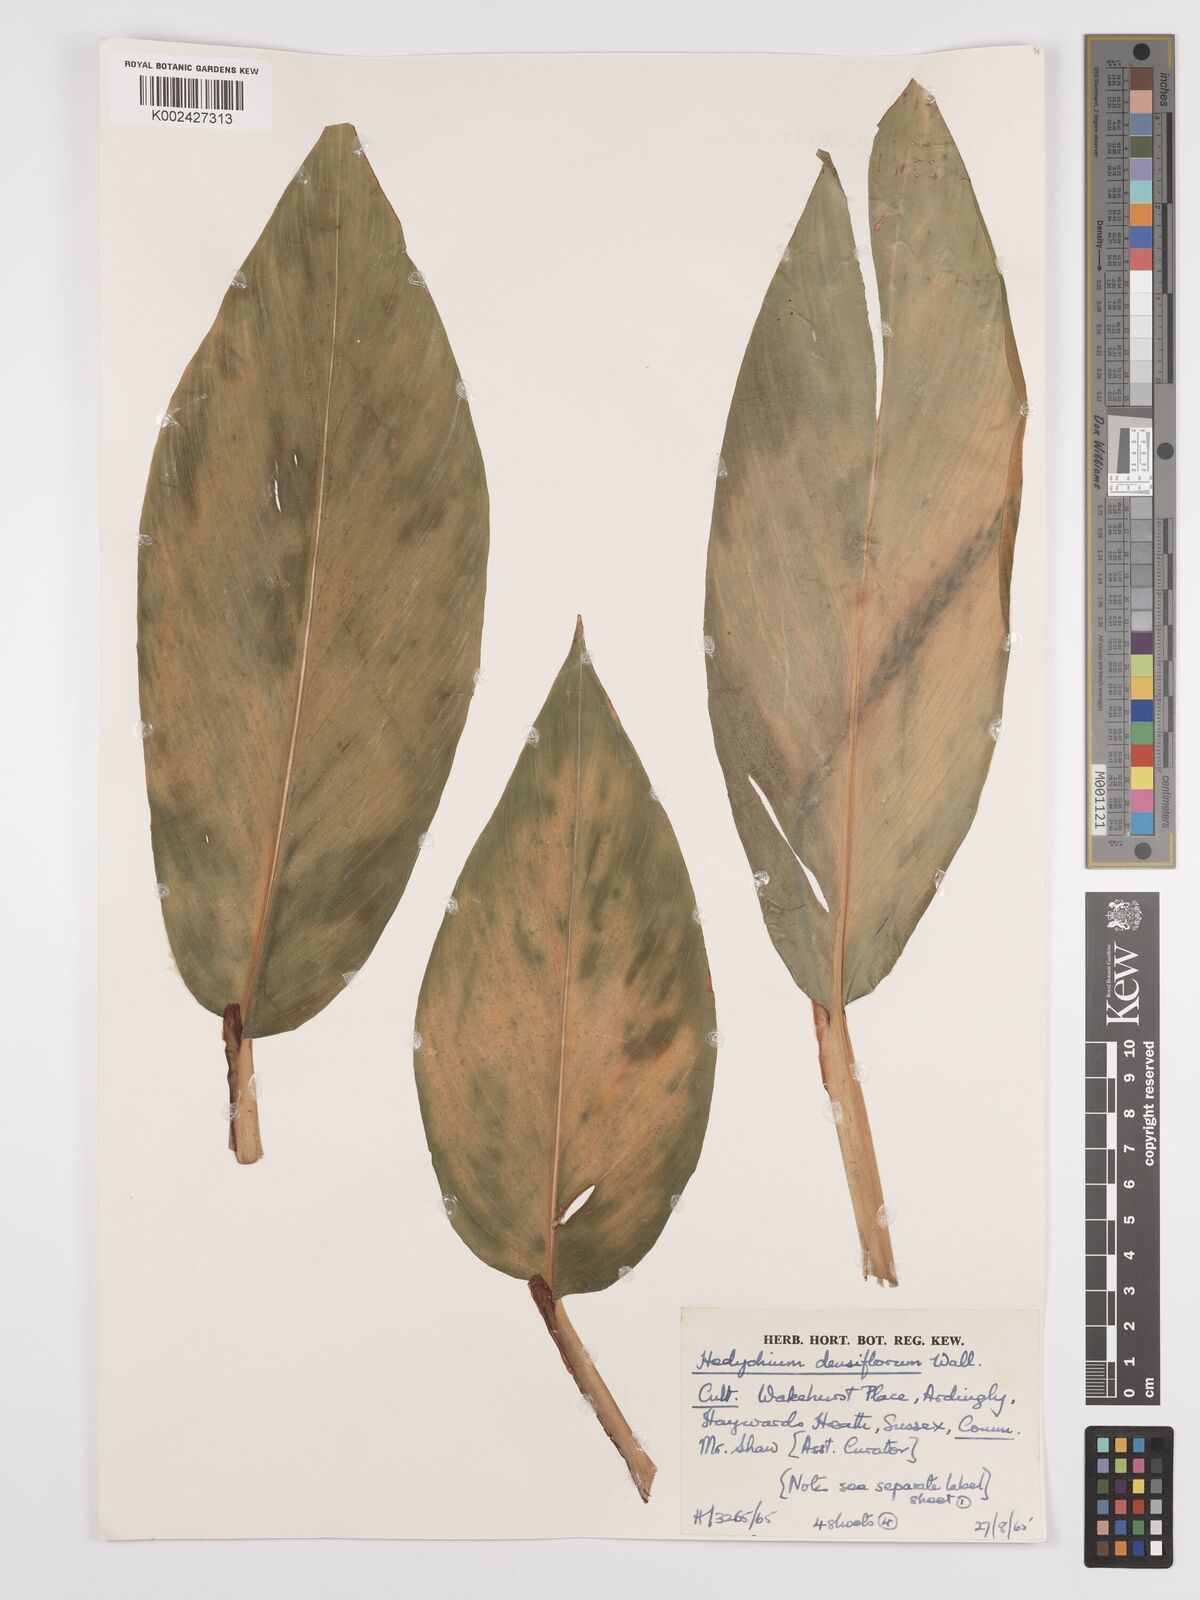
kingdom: Plantae
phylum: Tracheophyta
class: Liliopsida
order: Zingiberales
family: Zingiberaceae
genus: Hedychium
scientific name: Hedychium densiflorum
